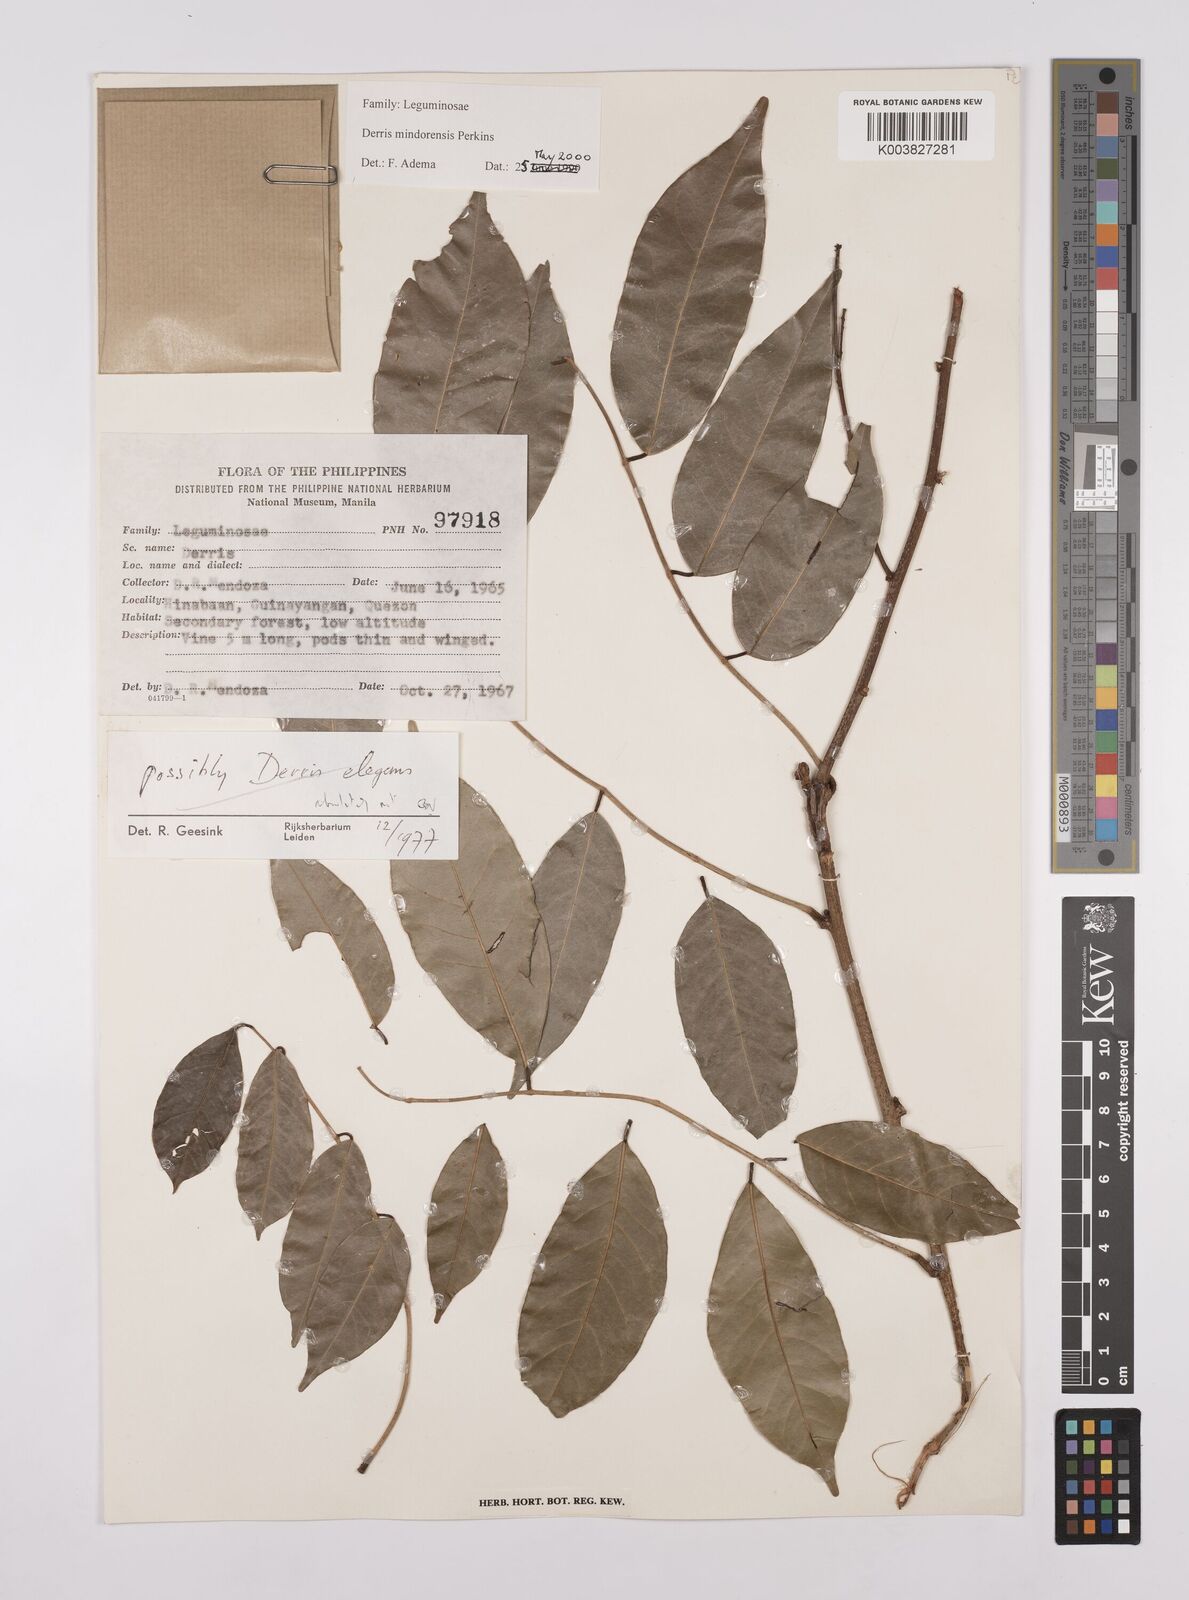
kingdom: Plantae
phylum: Tracheophyta
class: Magnoliopsida
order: Fabales
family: Fabaceae
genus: Derris
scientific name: Derris pubipetala
